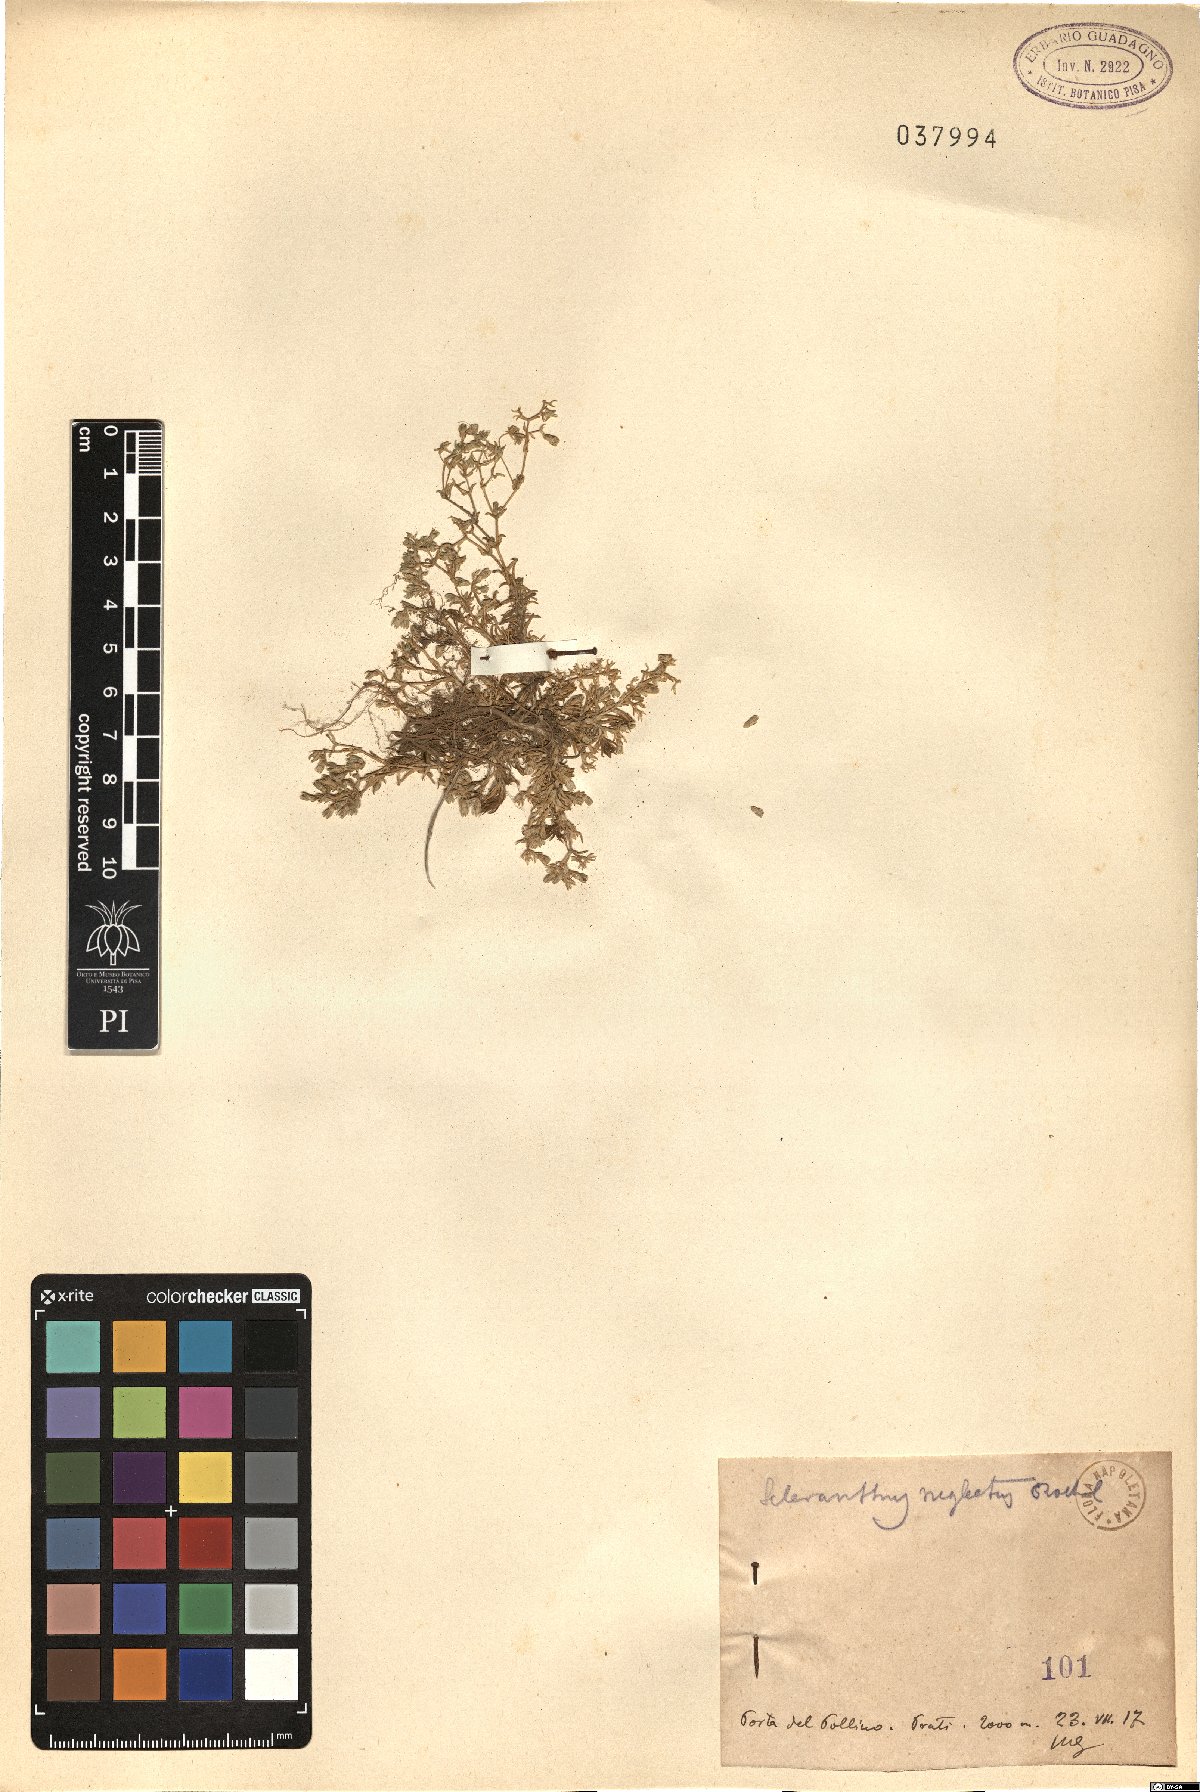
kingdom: Plantae
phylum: Tracheophyta
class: Magnoliopsida
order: Caryophyllales
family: Caryophyllaceae
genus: Scleranthus
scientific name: Scleranthus perennis
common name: Perennial knawel
